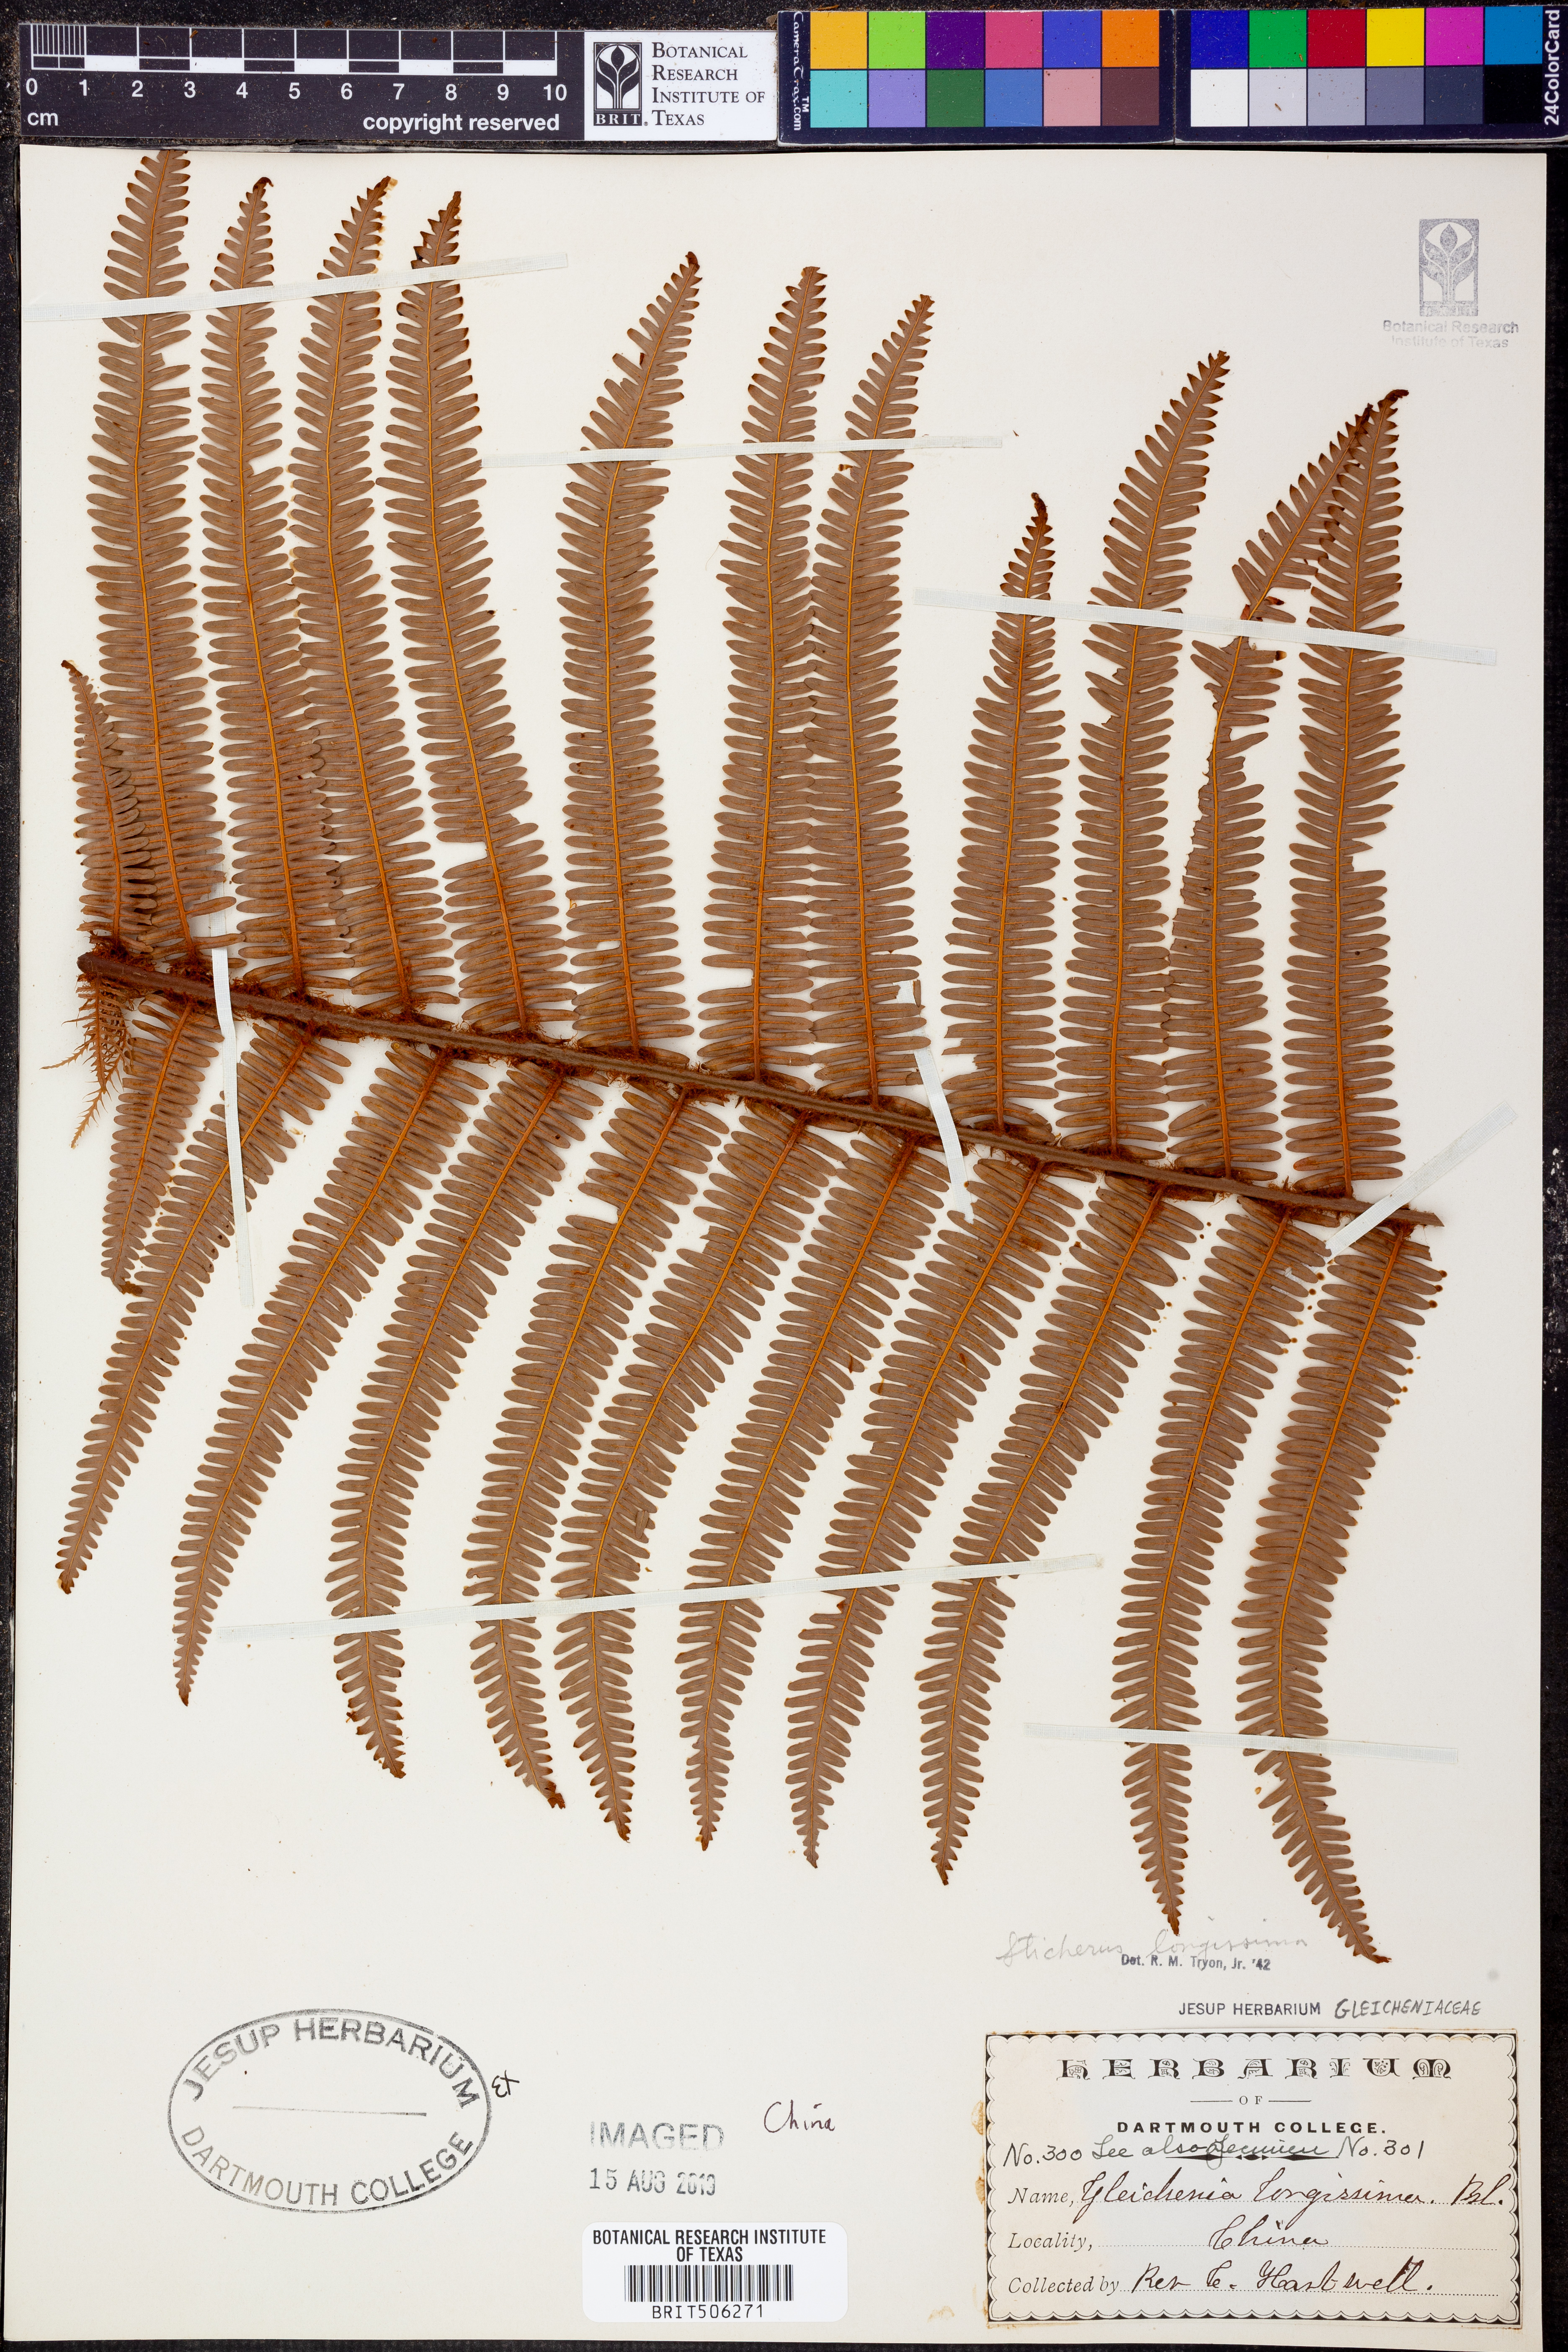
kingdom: Plantae
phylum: Tracheophyta
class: Polypodiopsida
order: Gleicheniales
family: Gleicheniaceae
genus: Sticherus
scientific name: Sticherus
